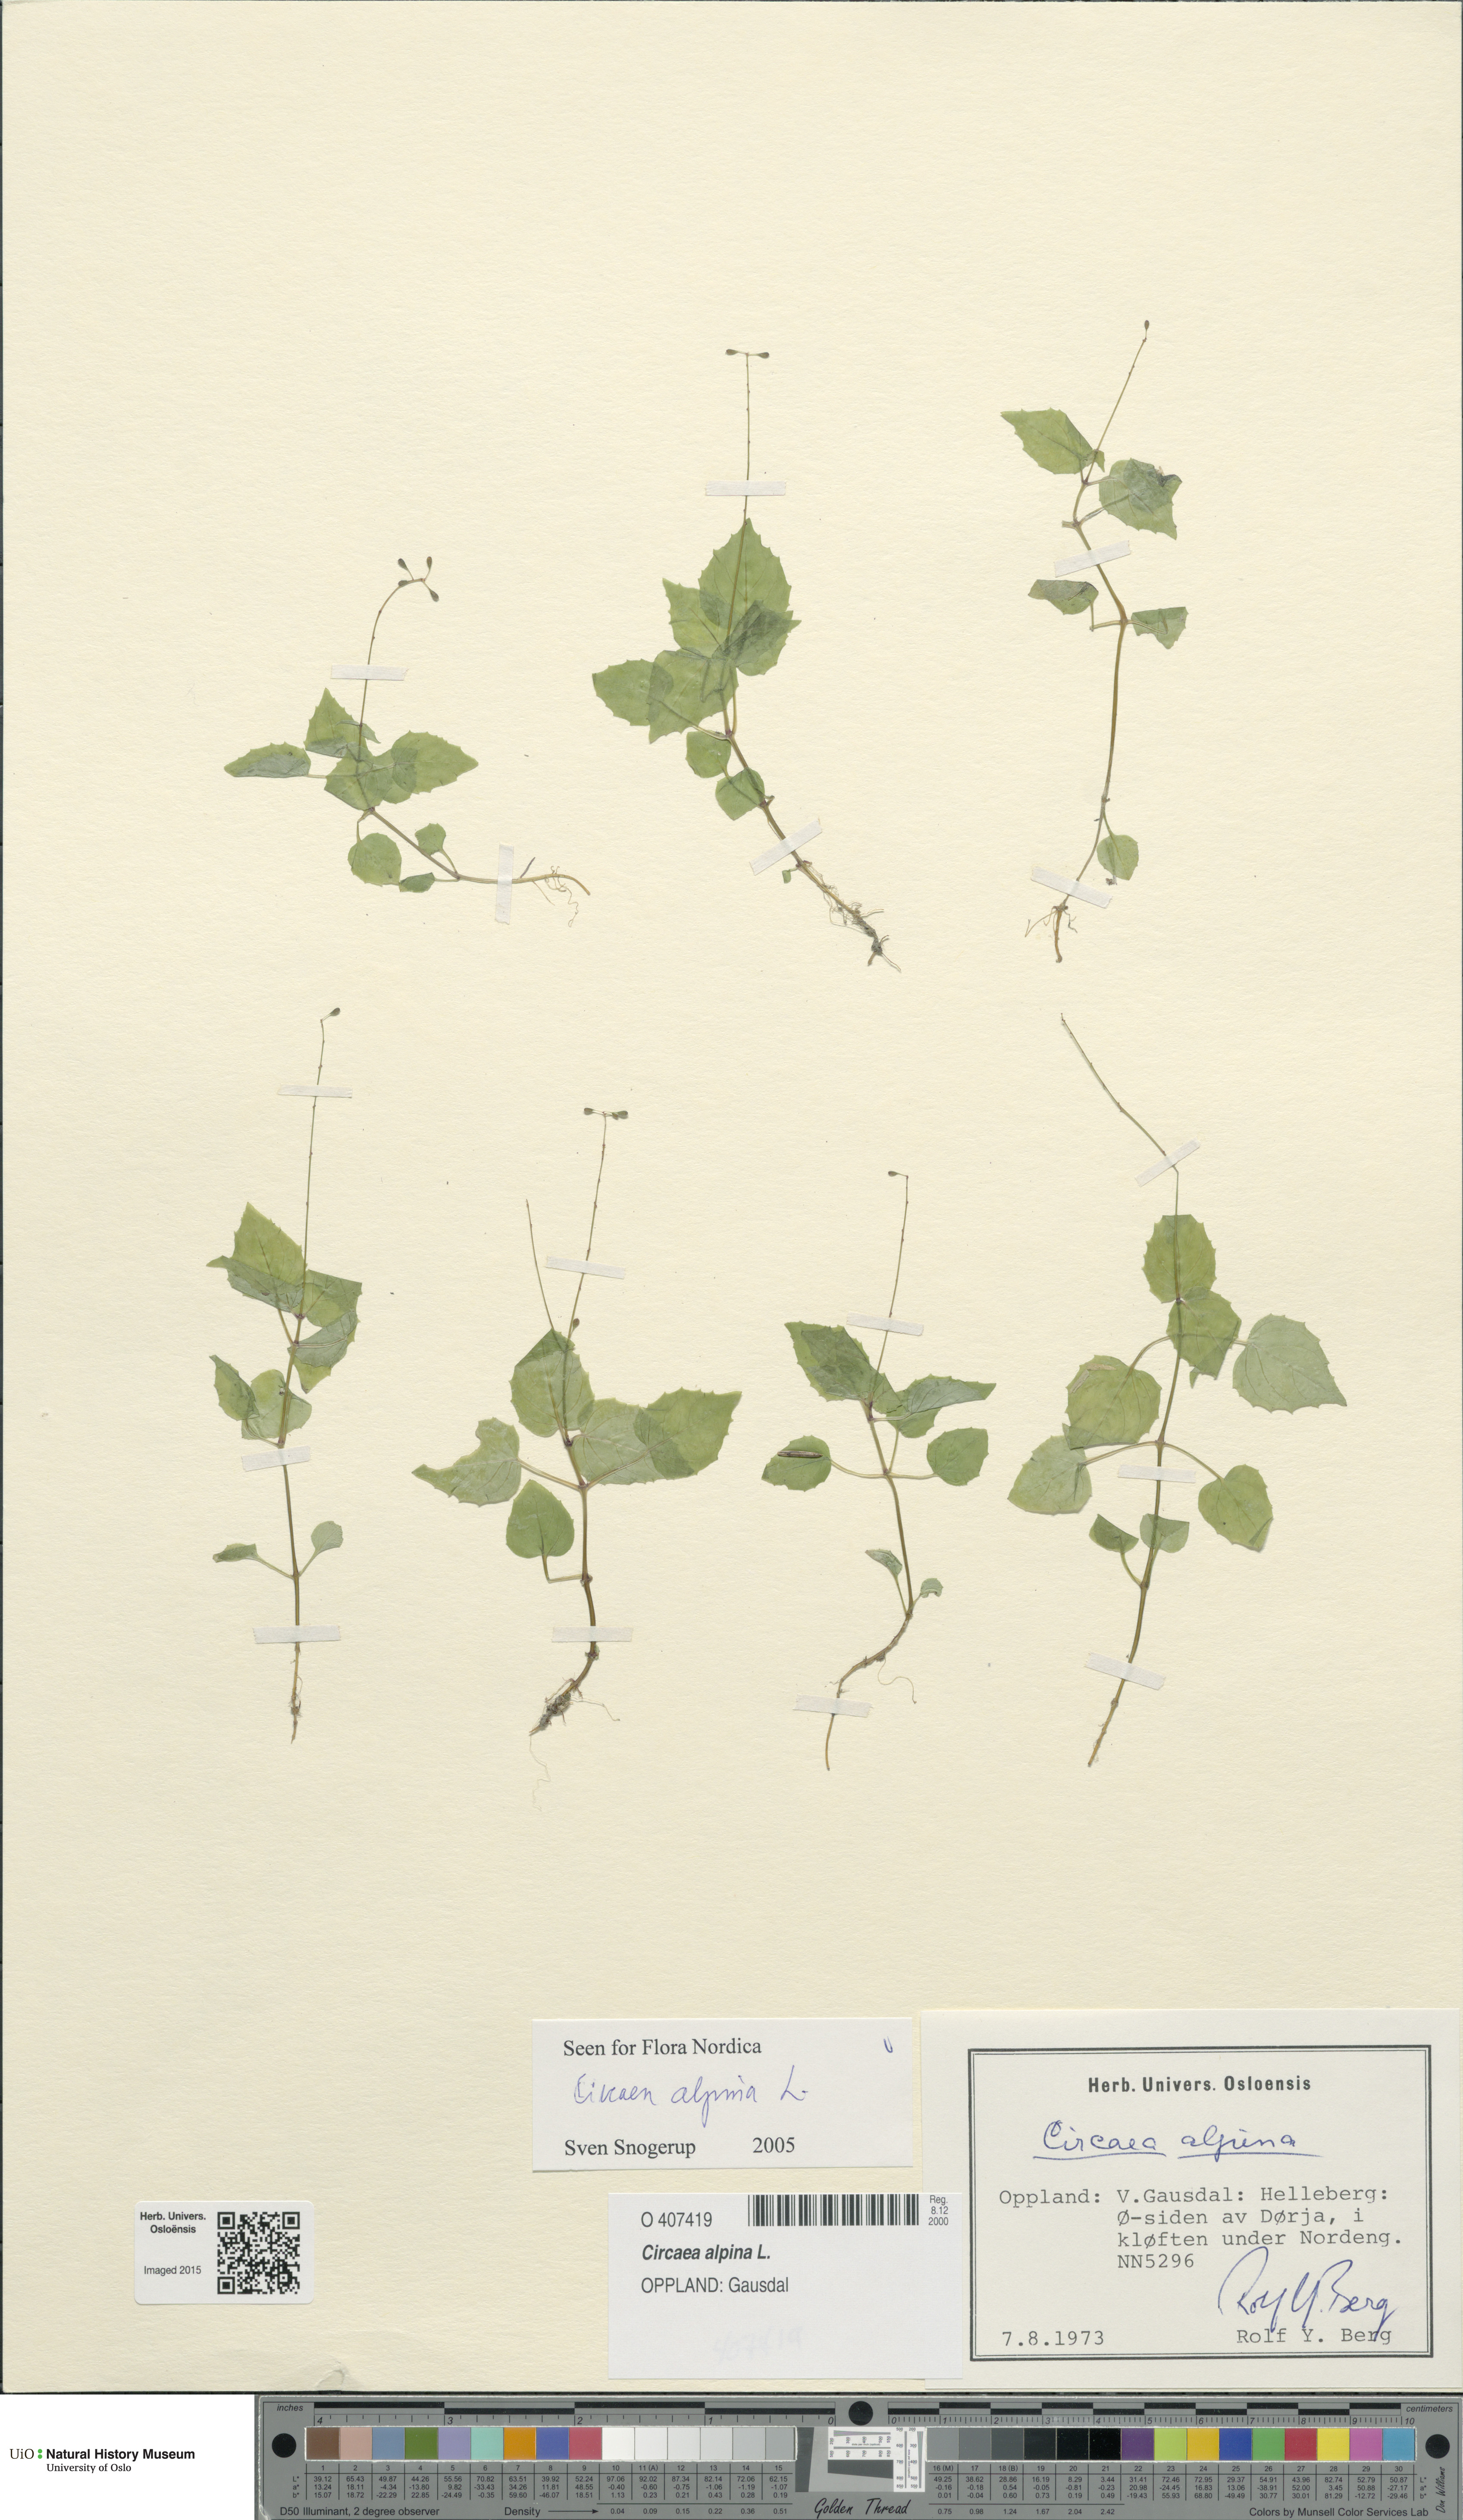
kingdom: Plantae
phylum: Tracheophyta
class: Magnoliopsida
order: Myrtales
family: Onagraceae
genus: Circaea
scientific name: Circaea alpina
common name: Alpine enchanter's-nightshade
